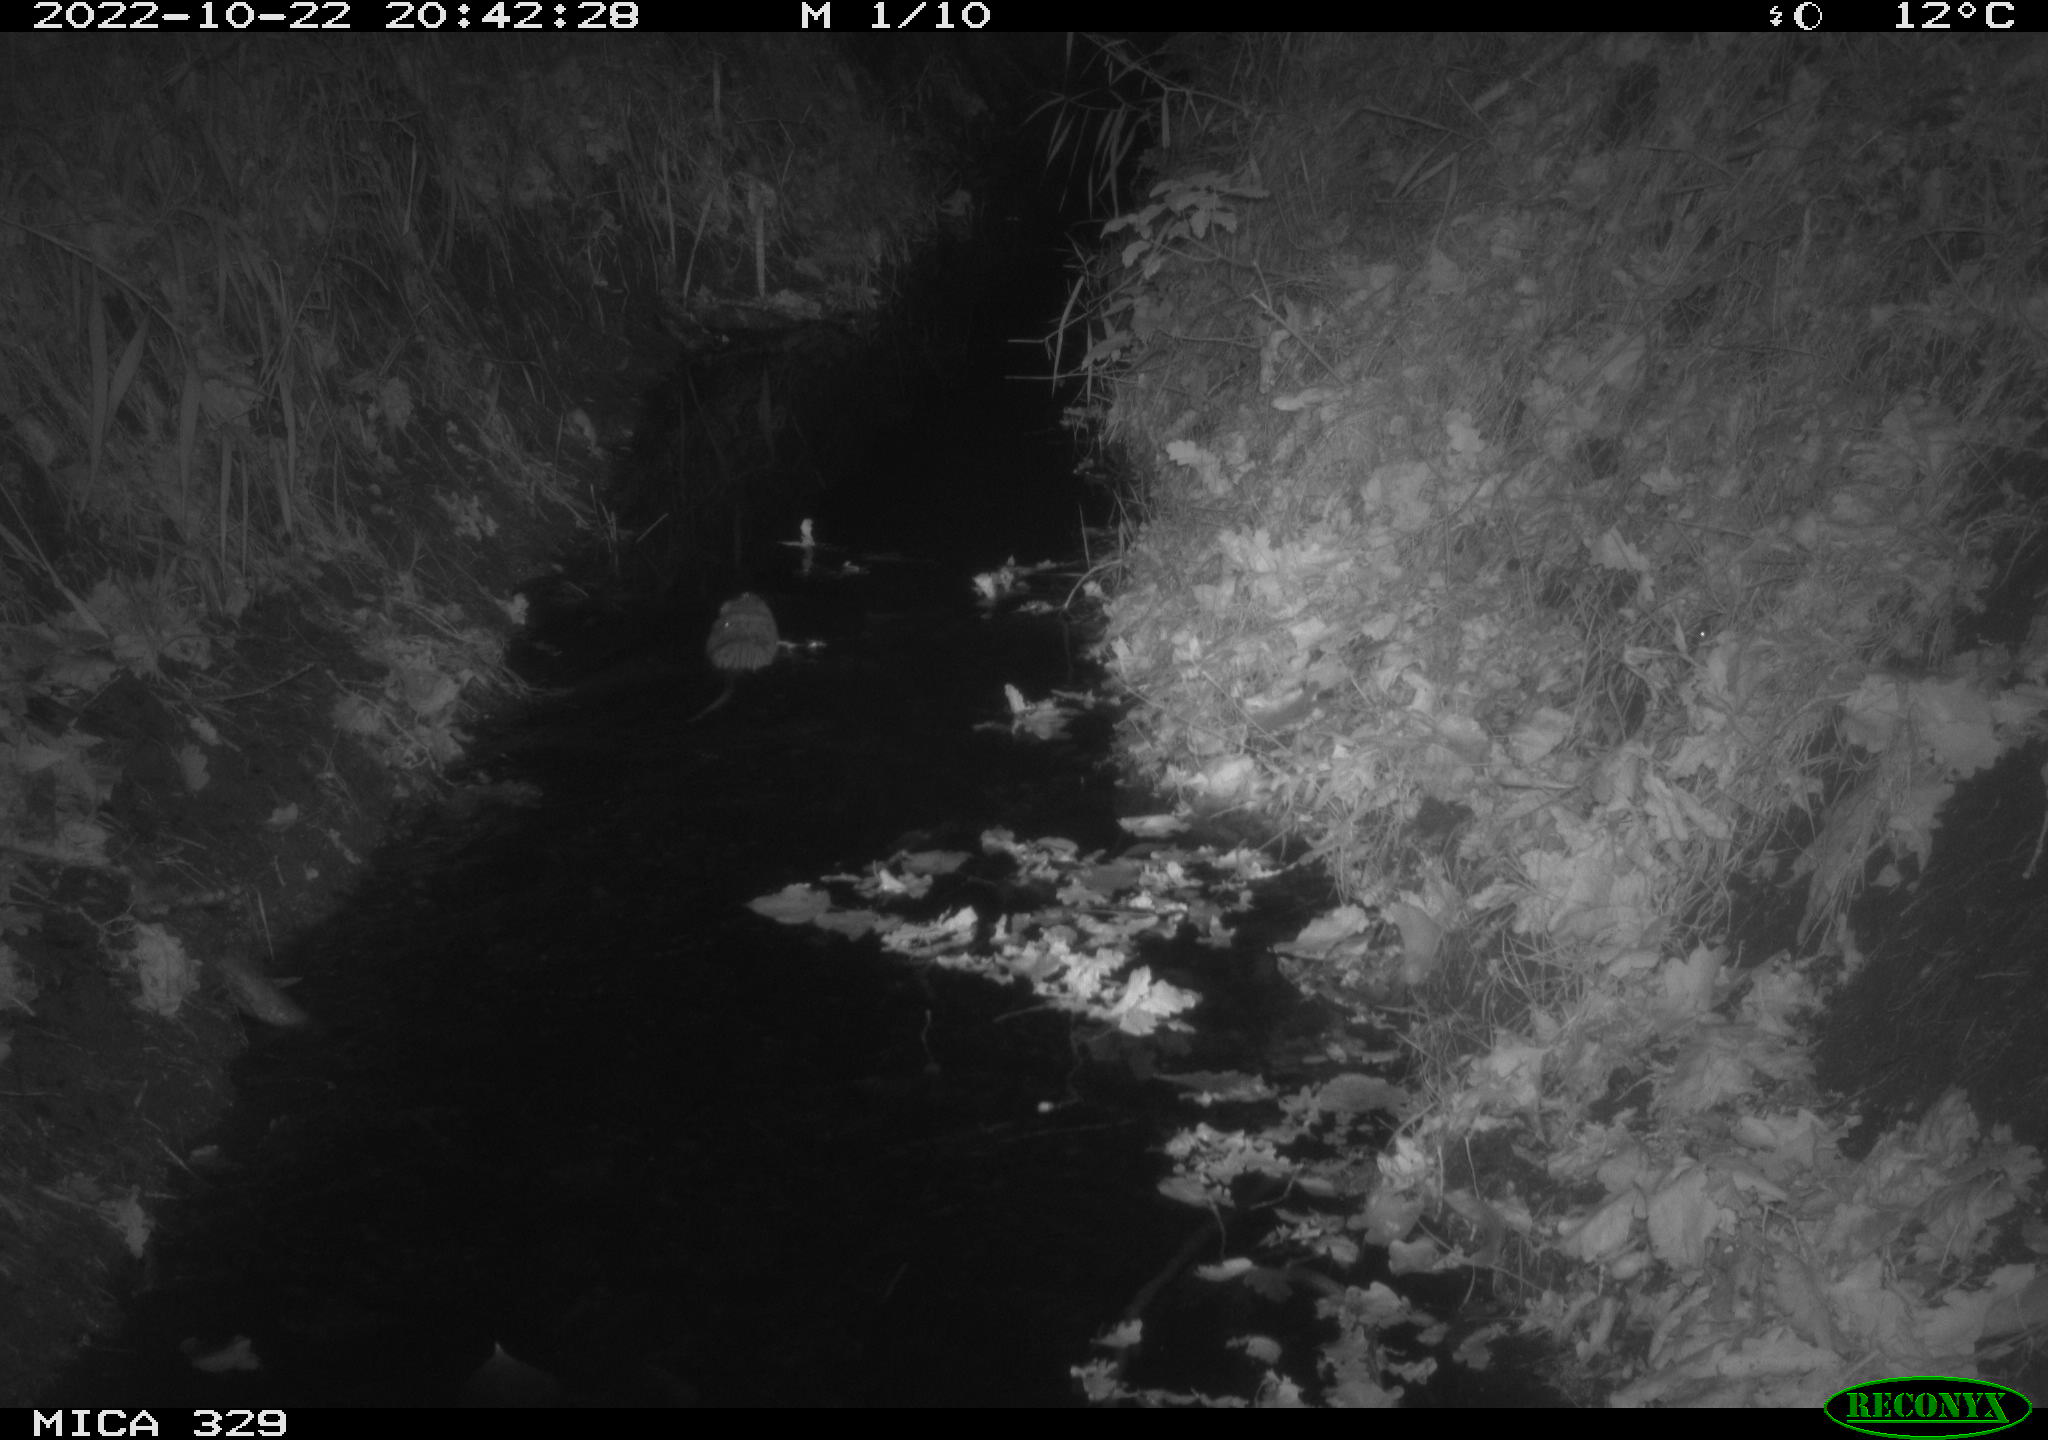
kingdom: Animalia
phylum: Chordata
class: Mammalia
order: Rodentia
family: Cricetidae
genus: Ondatra
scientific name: Ondatra zibethicus
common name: Muskrat
